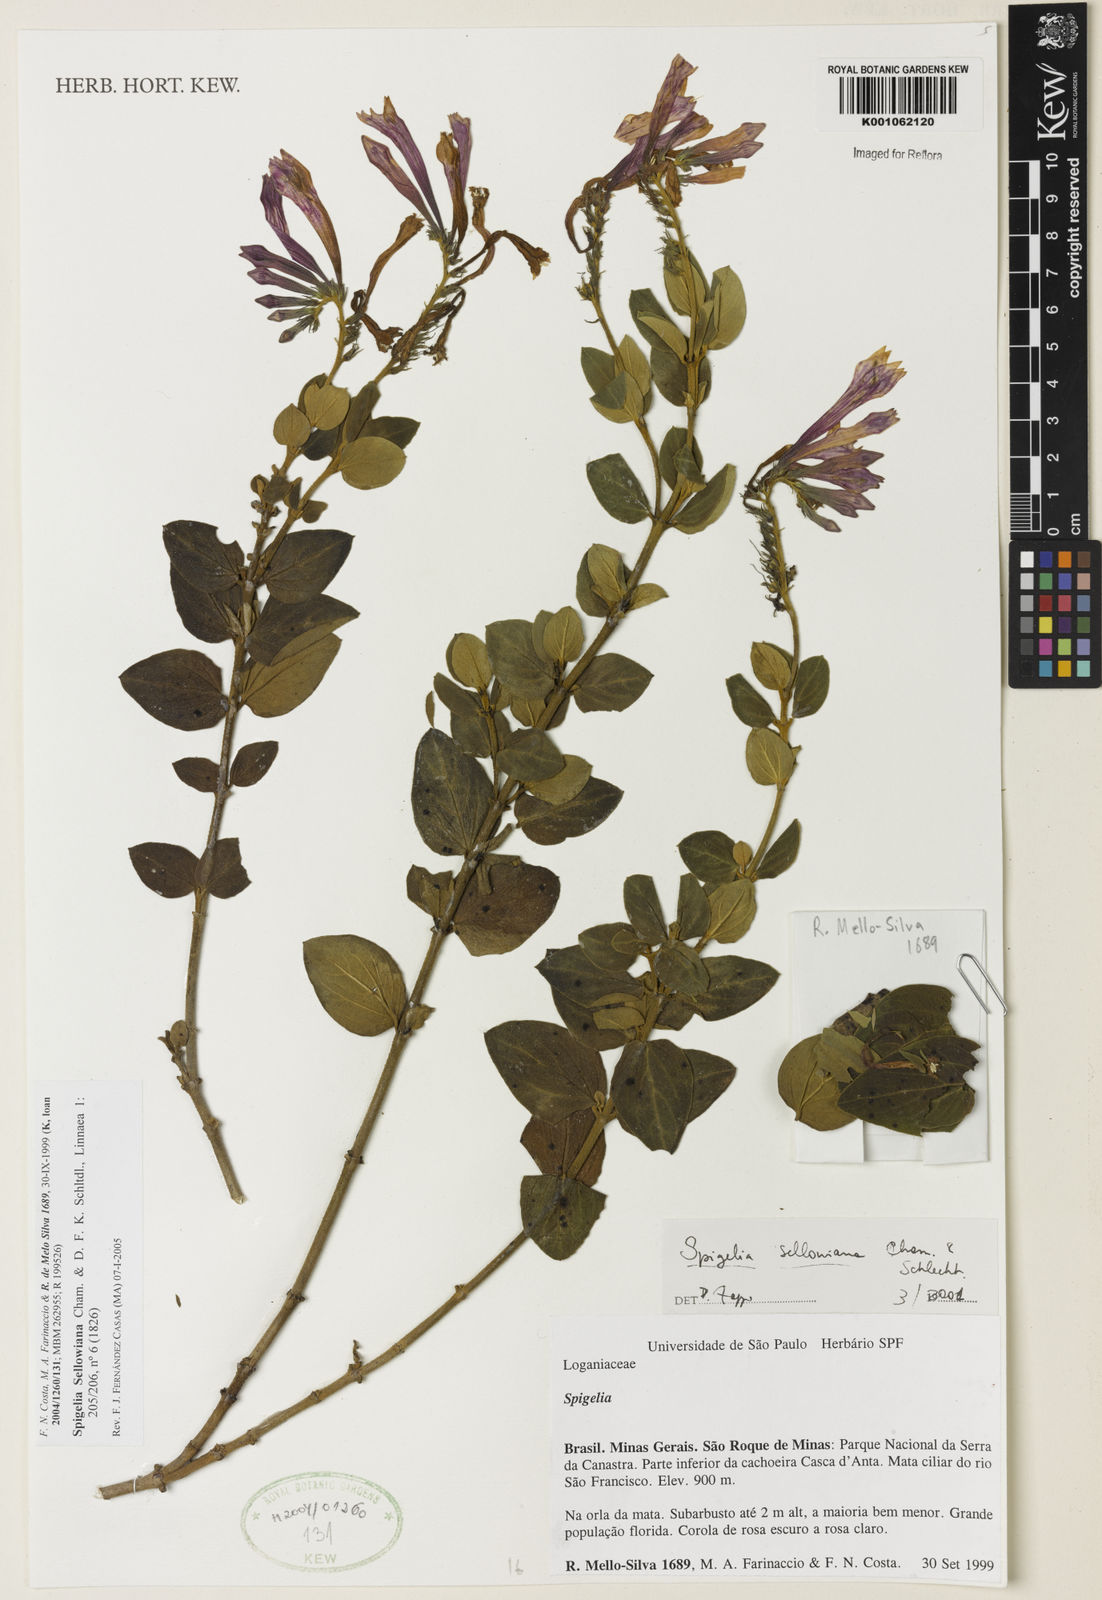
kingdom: Plantae
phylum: Tracheophyta
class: Magnoliopsida
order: Gentianales
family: Loganiaceae
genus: Spigelia
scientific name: Spigelia sellowiana
